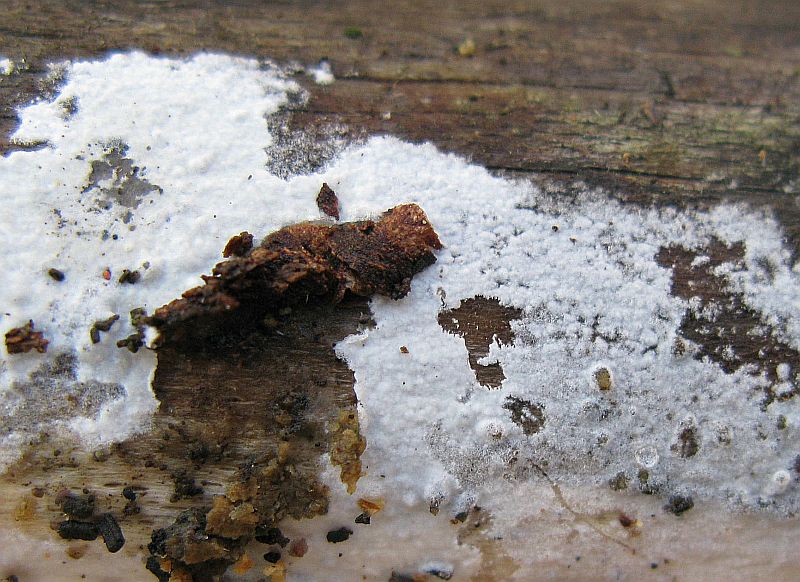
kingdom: Fungi
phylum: Basidiomycota
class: Agaricomycetes
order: Polyporales
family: Phanerochaetaceae
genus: Phanerochaete
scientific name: Phanerochaete sordida
